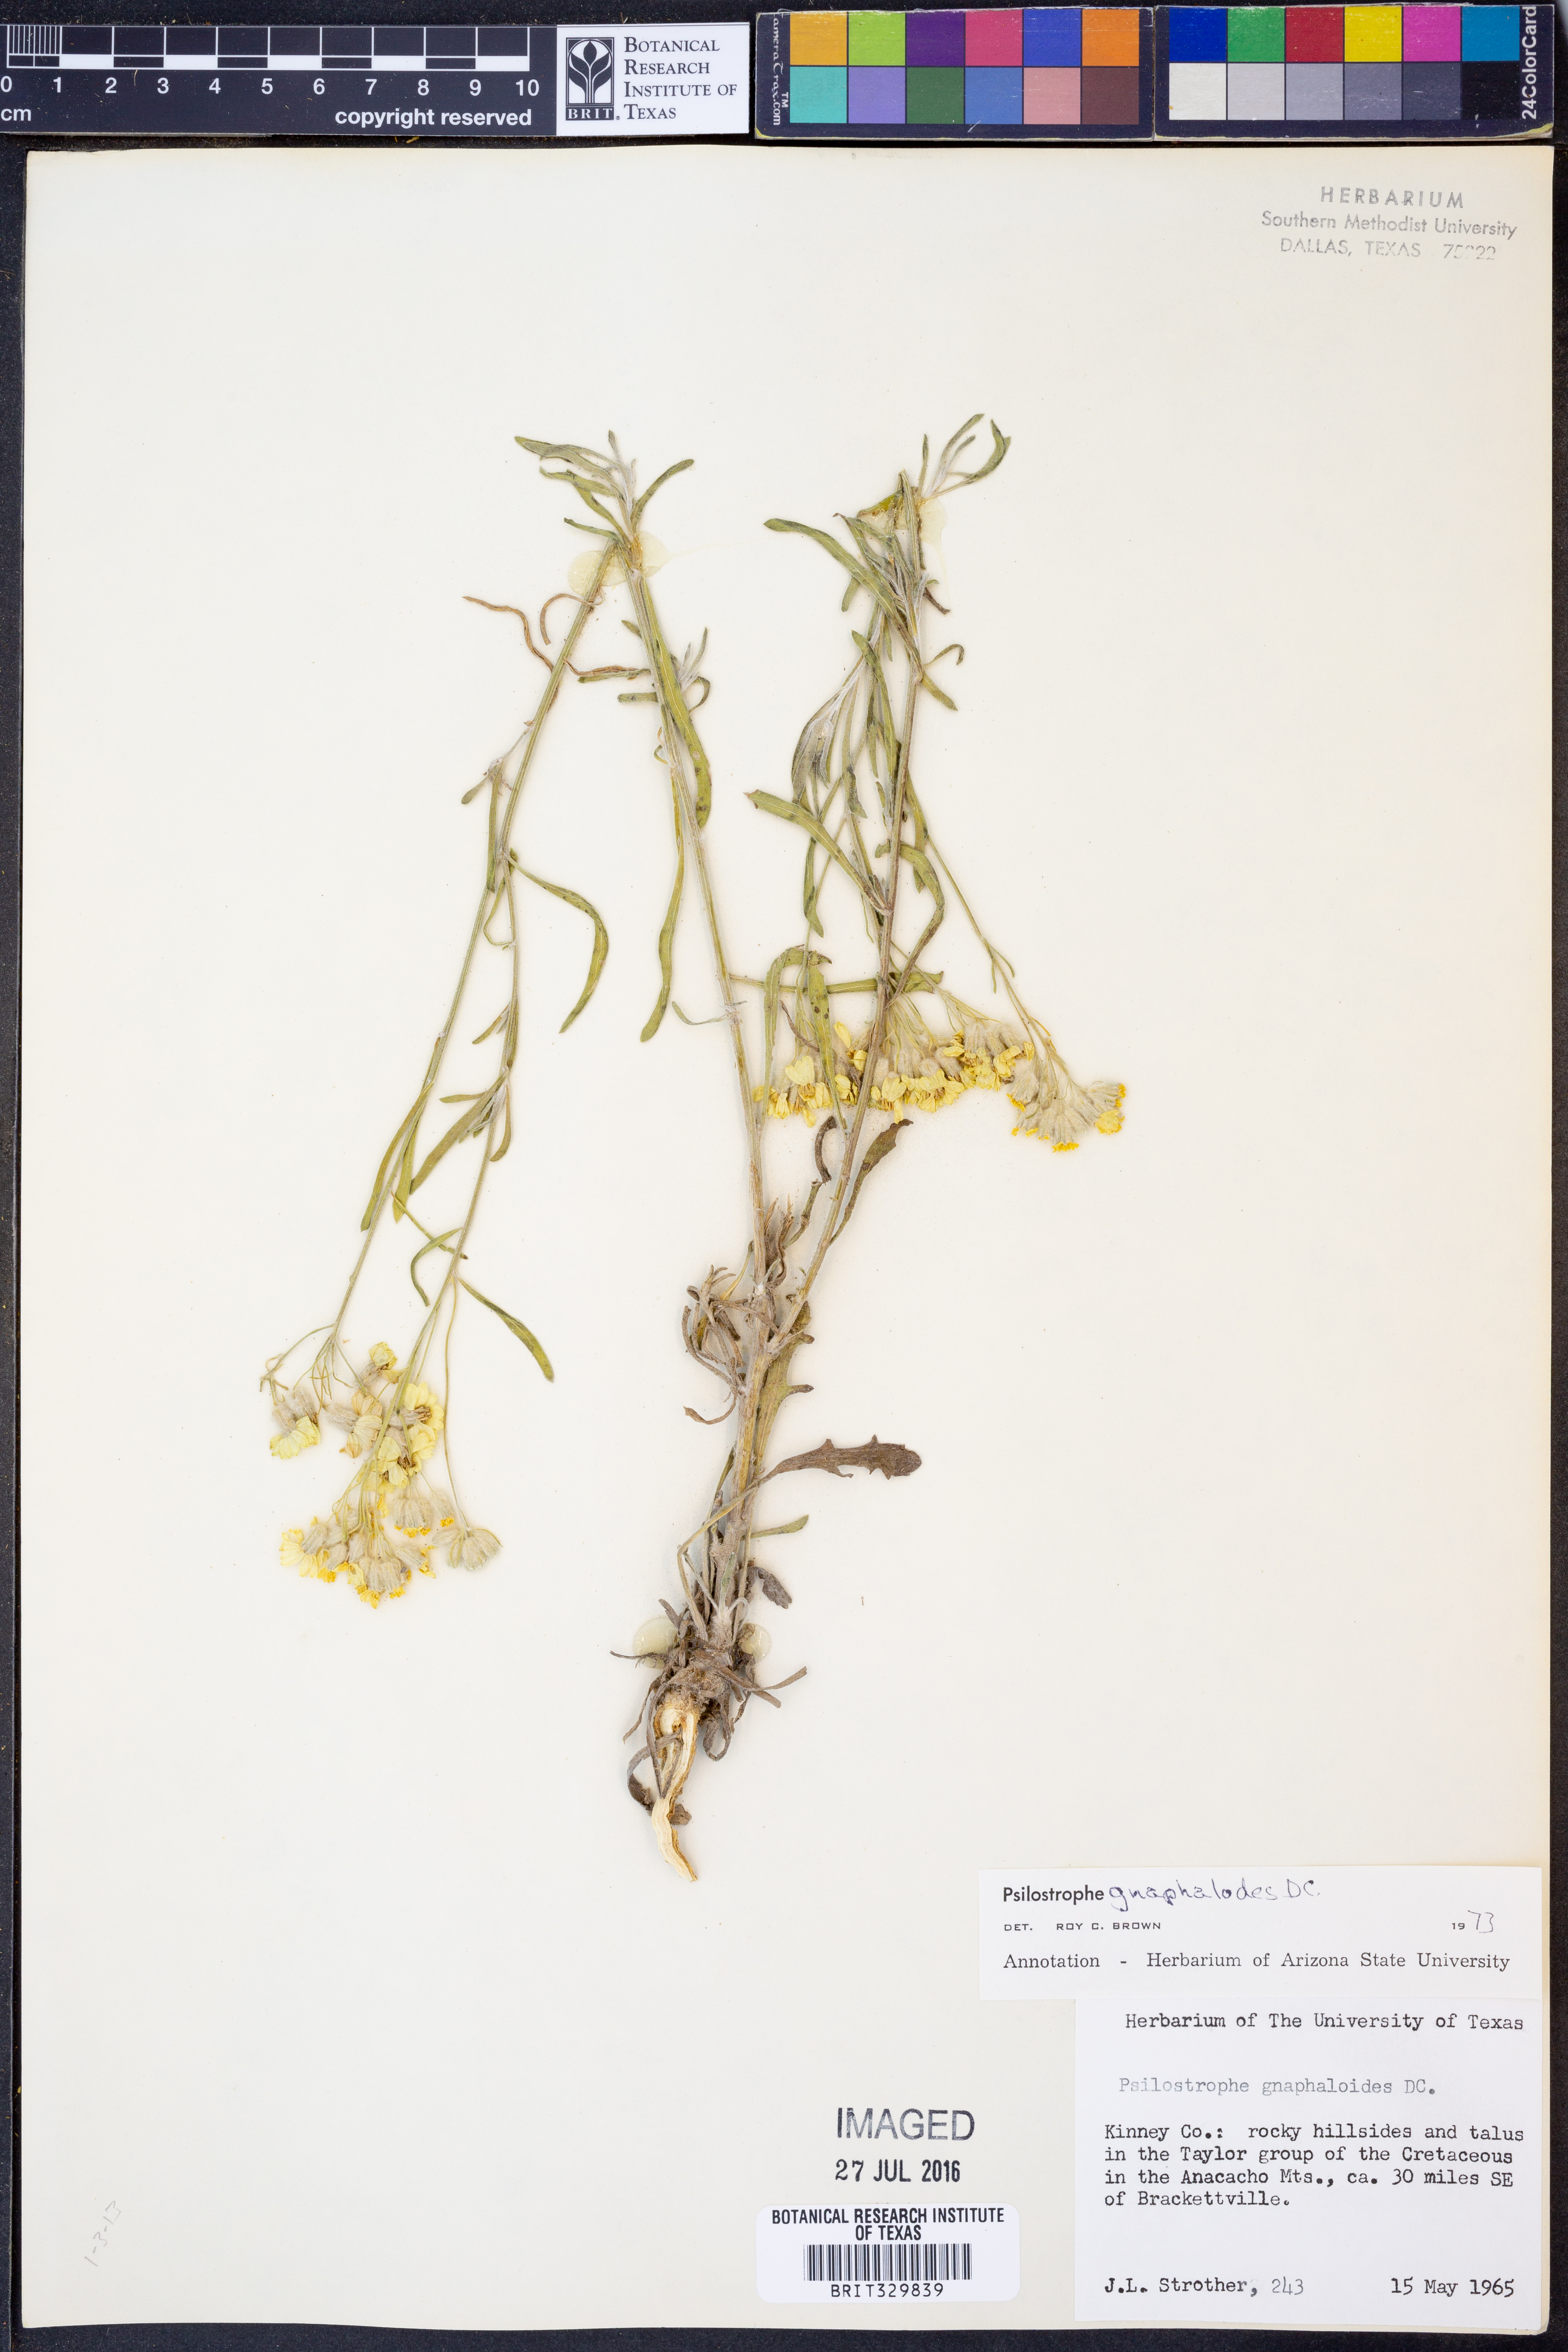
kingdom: Plantae
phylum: Tracheophyta
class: Magnoliopsida
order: Asterales
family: Asteraceae
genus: Psilostrophe
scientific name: Psilostrophe gnaphalioides
